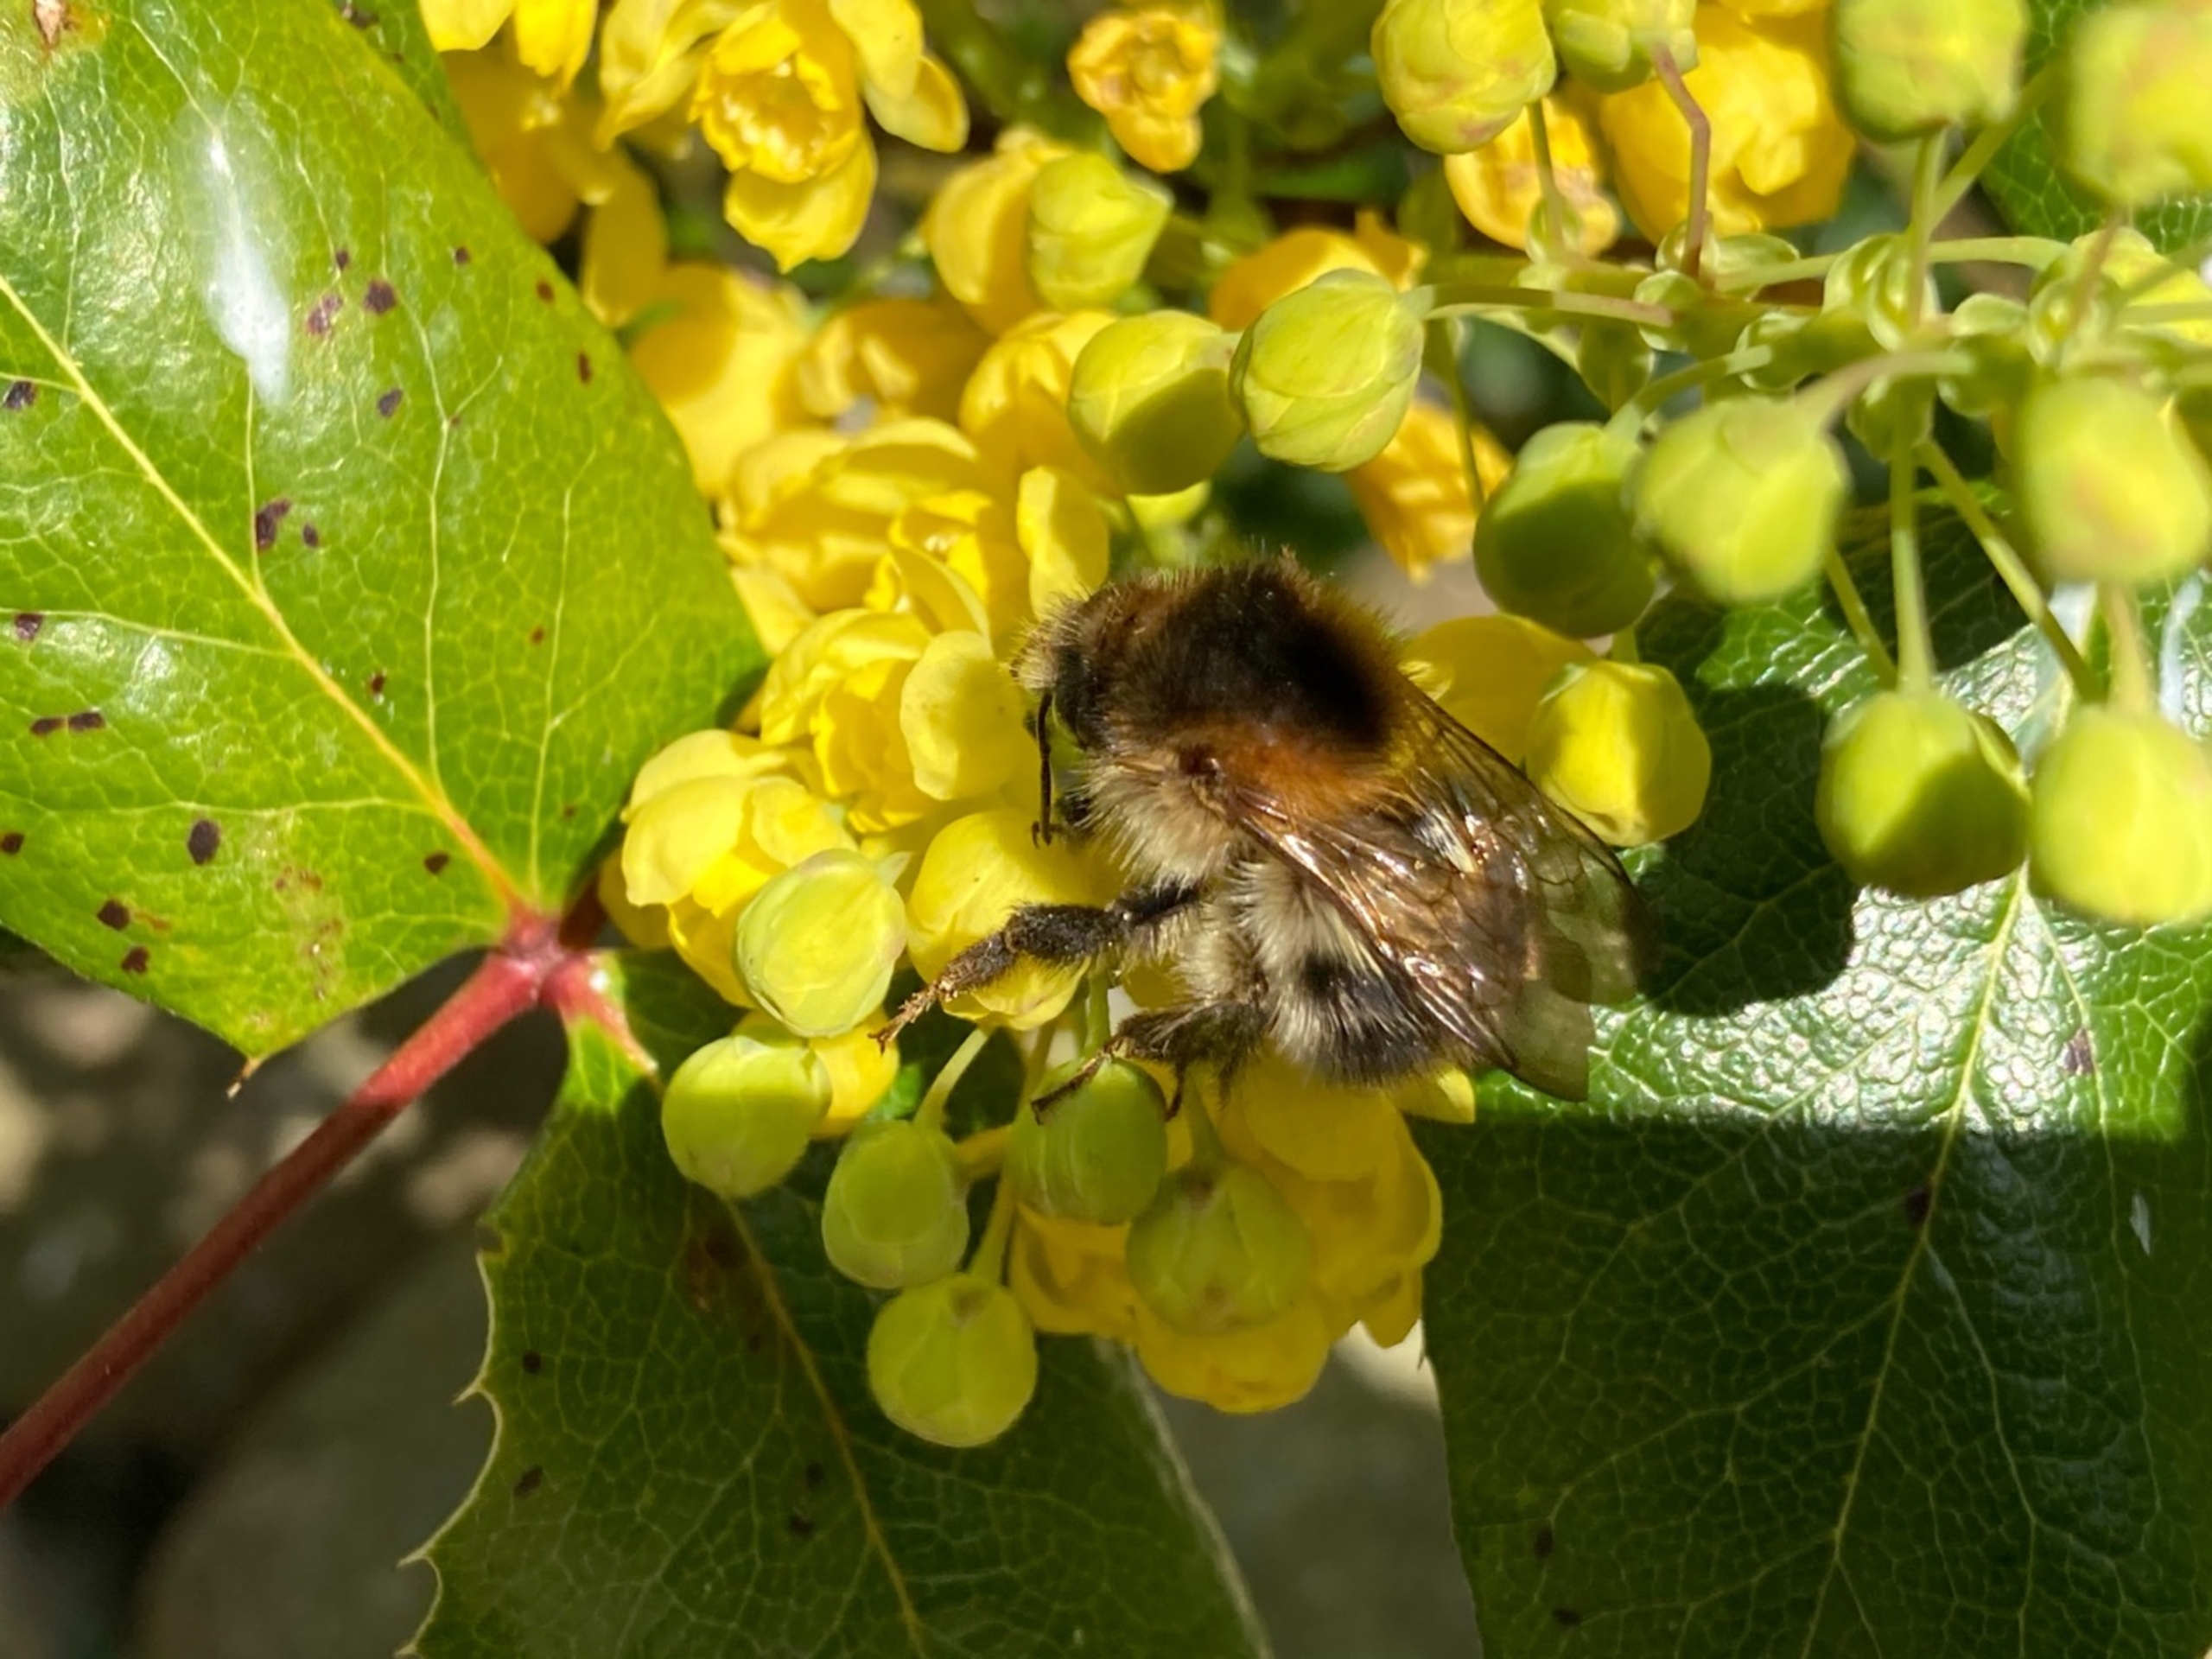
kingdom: Animalia
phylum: Arthropoda
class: Insecta
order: Hymenoptera
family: Apidae
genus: Bombus
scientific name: Bombus pascuorum
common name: Agerhumle
